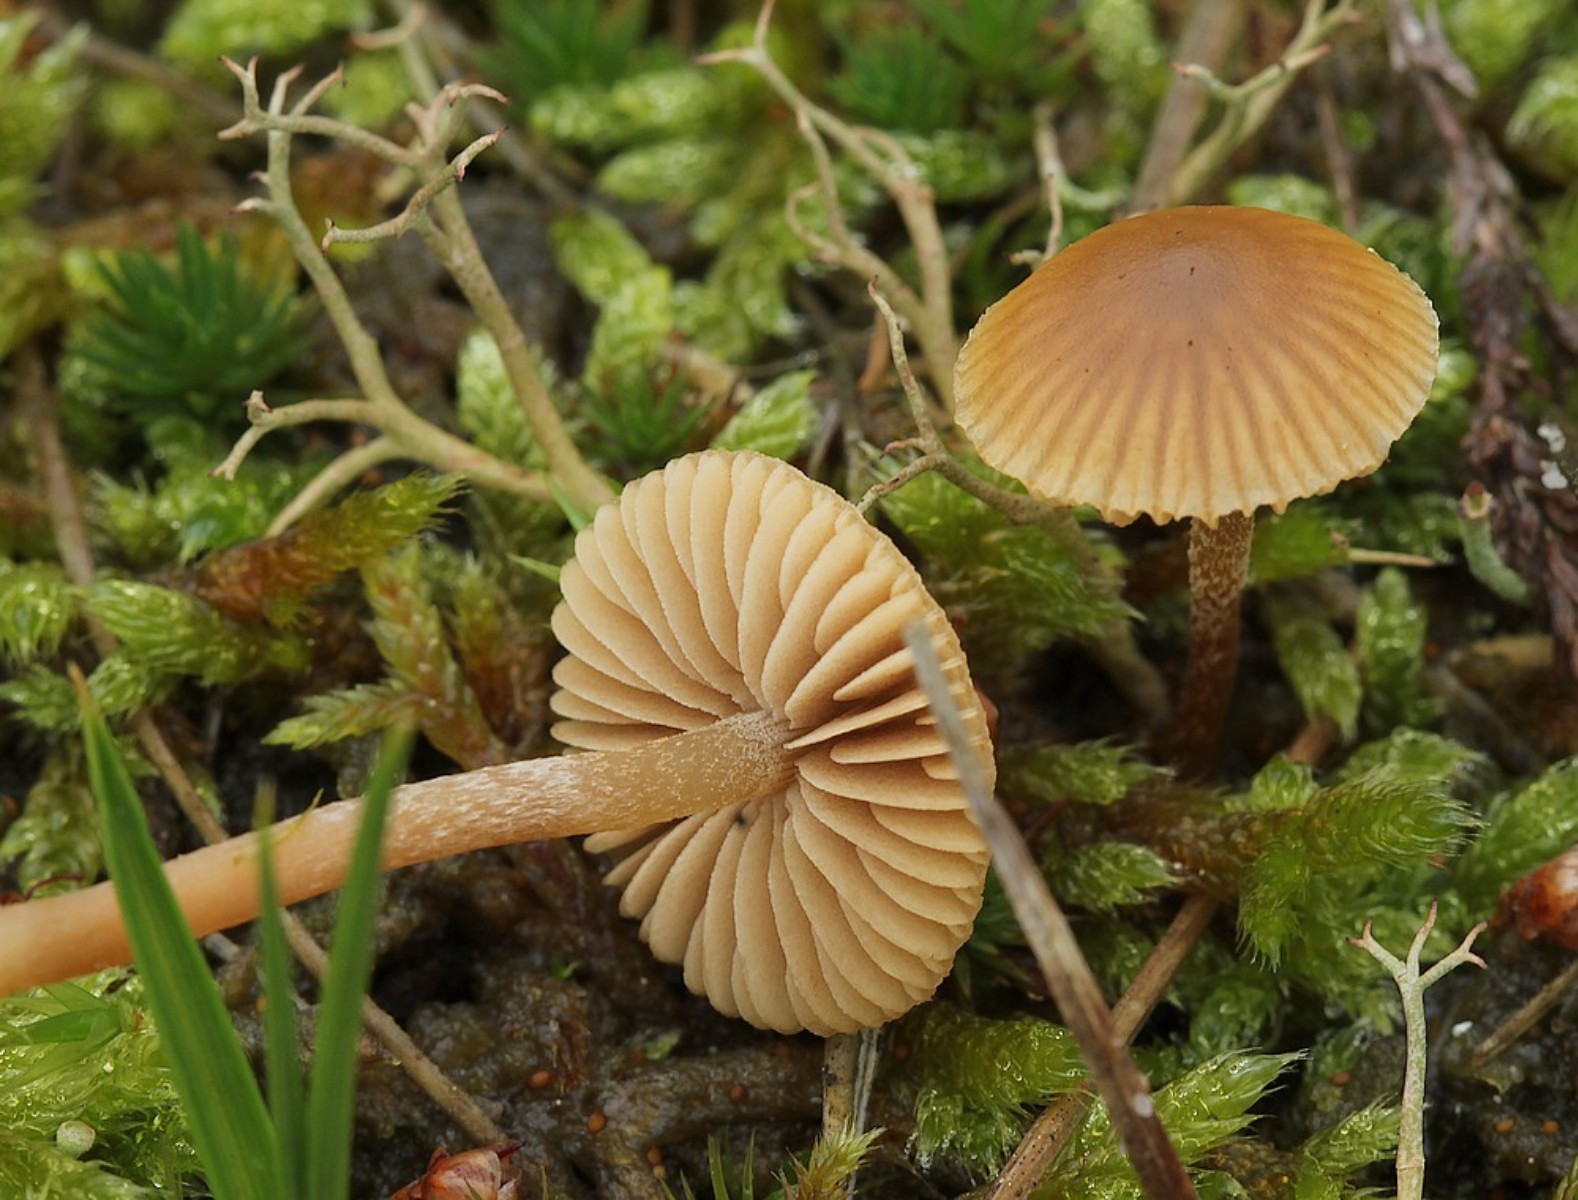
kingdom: Fungi
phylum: Basidiomycota
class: Agaricomycetes
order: Agaricales
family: Hymenogastraceae
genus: Galerina
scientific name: Galerina
